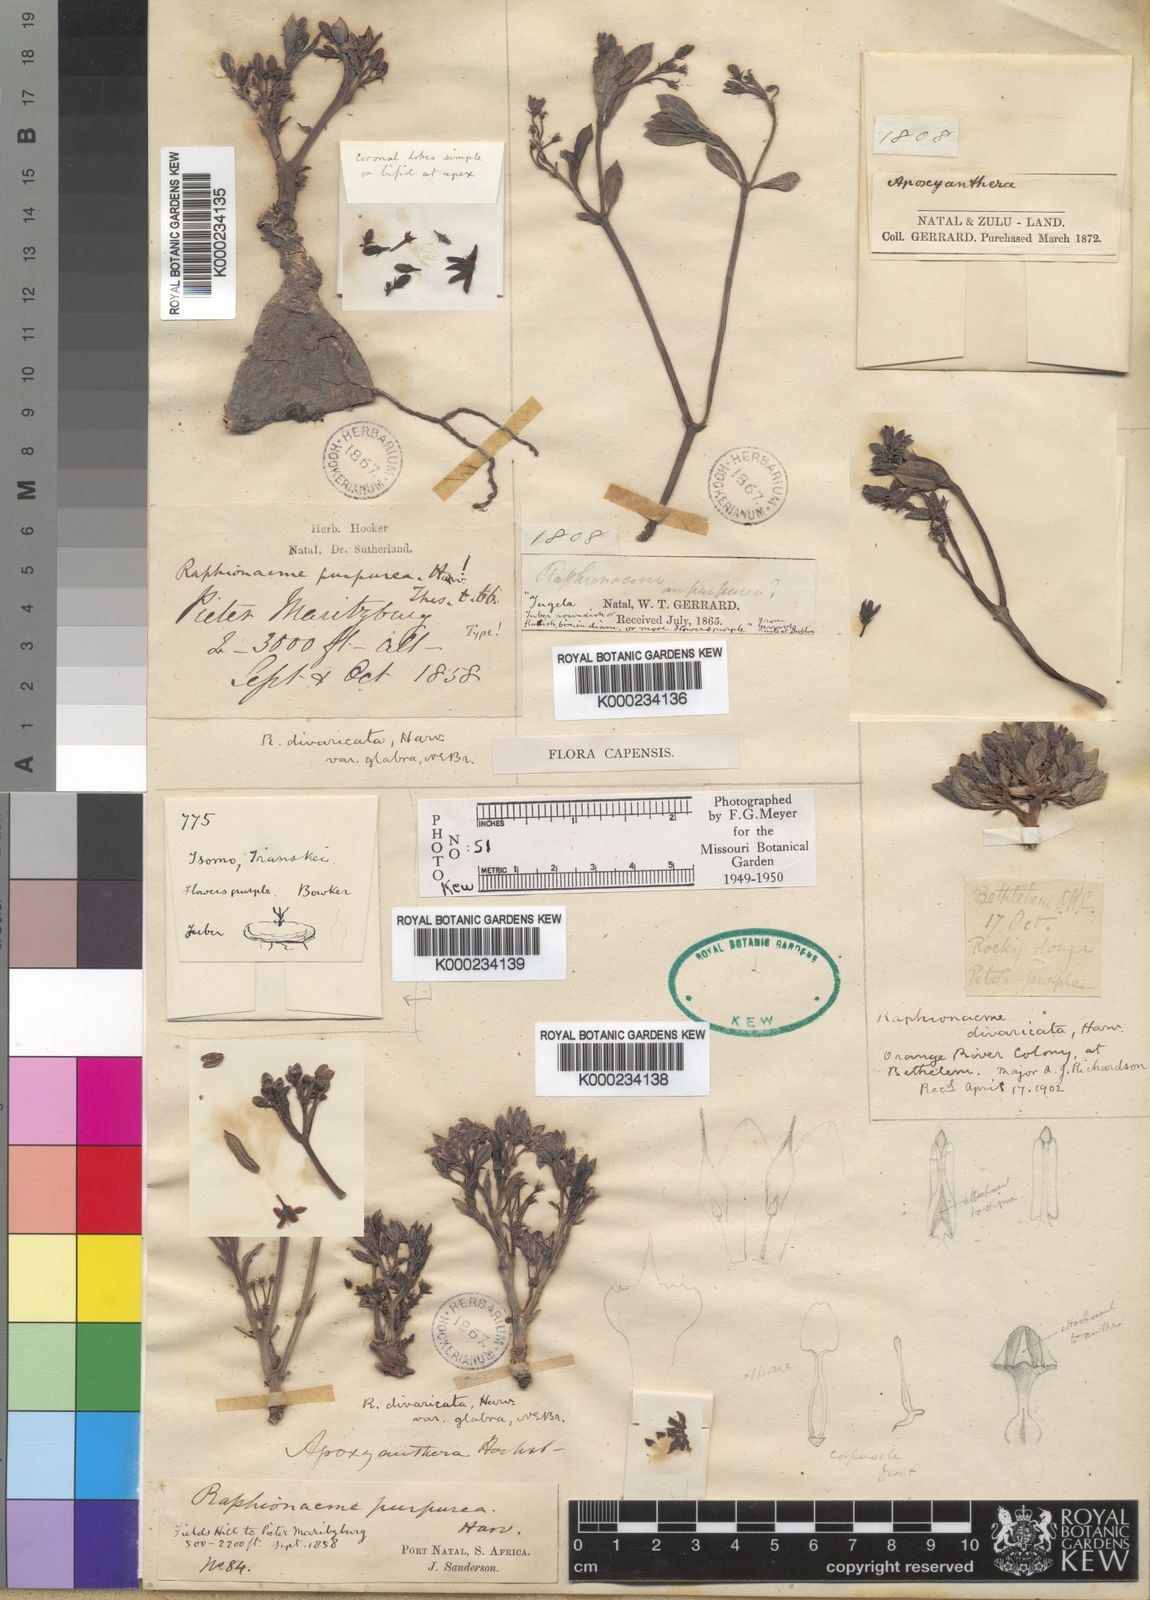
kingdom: Plantae
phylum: Tracheophyta
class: Magnoliopsida
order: Gentianales
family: Apocynaceae
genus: Raphionacme
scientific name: Raphionacme hirsuta
